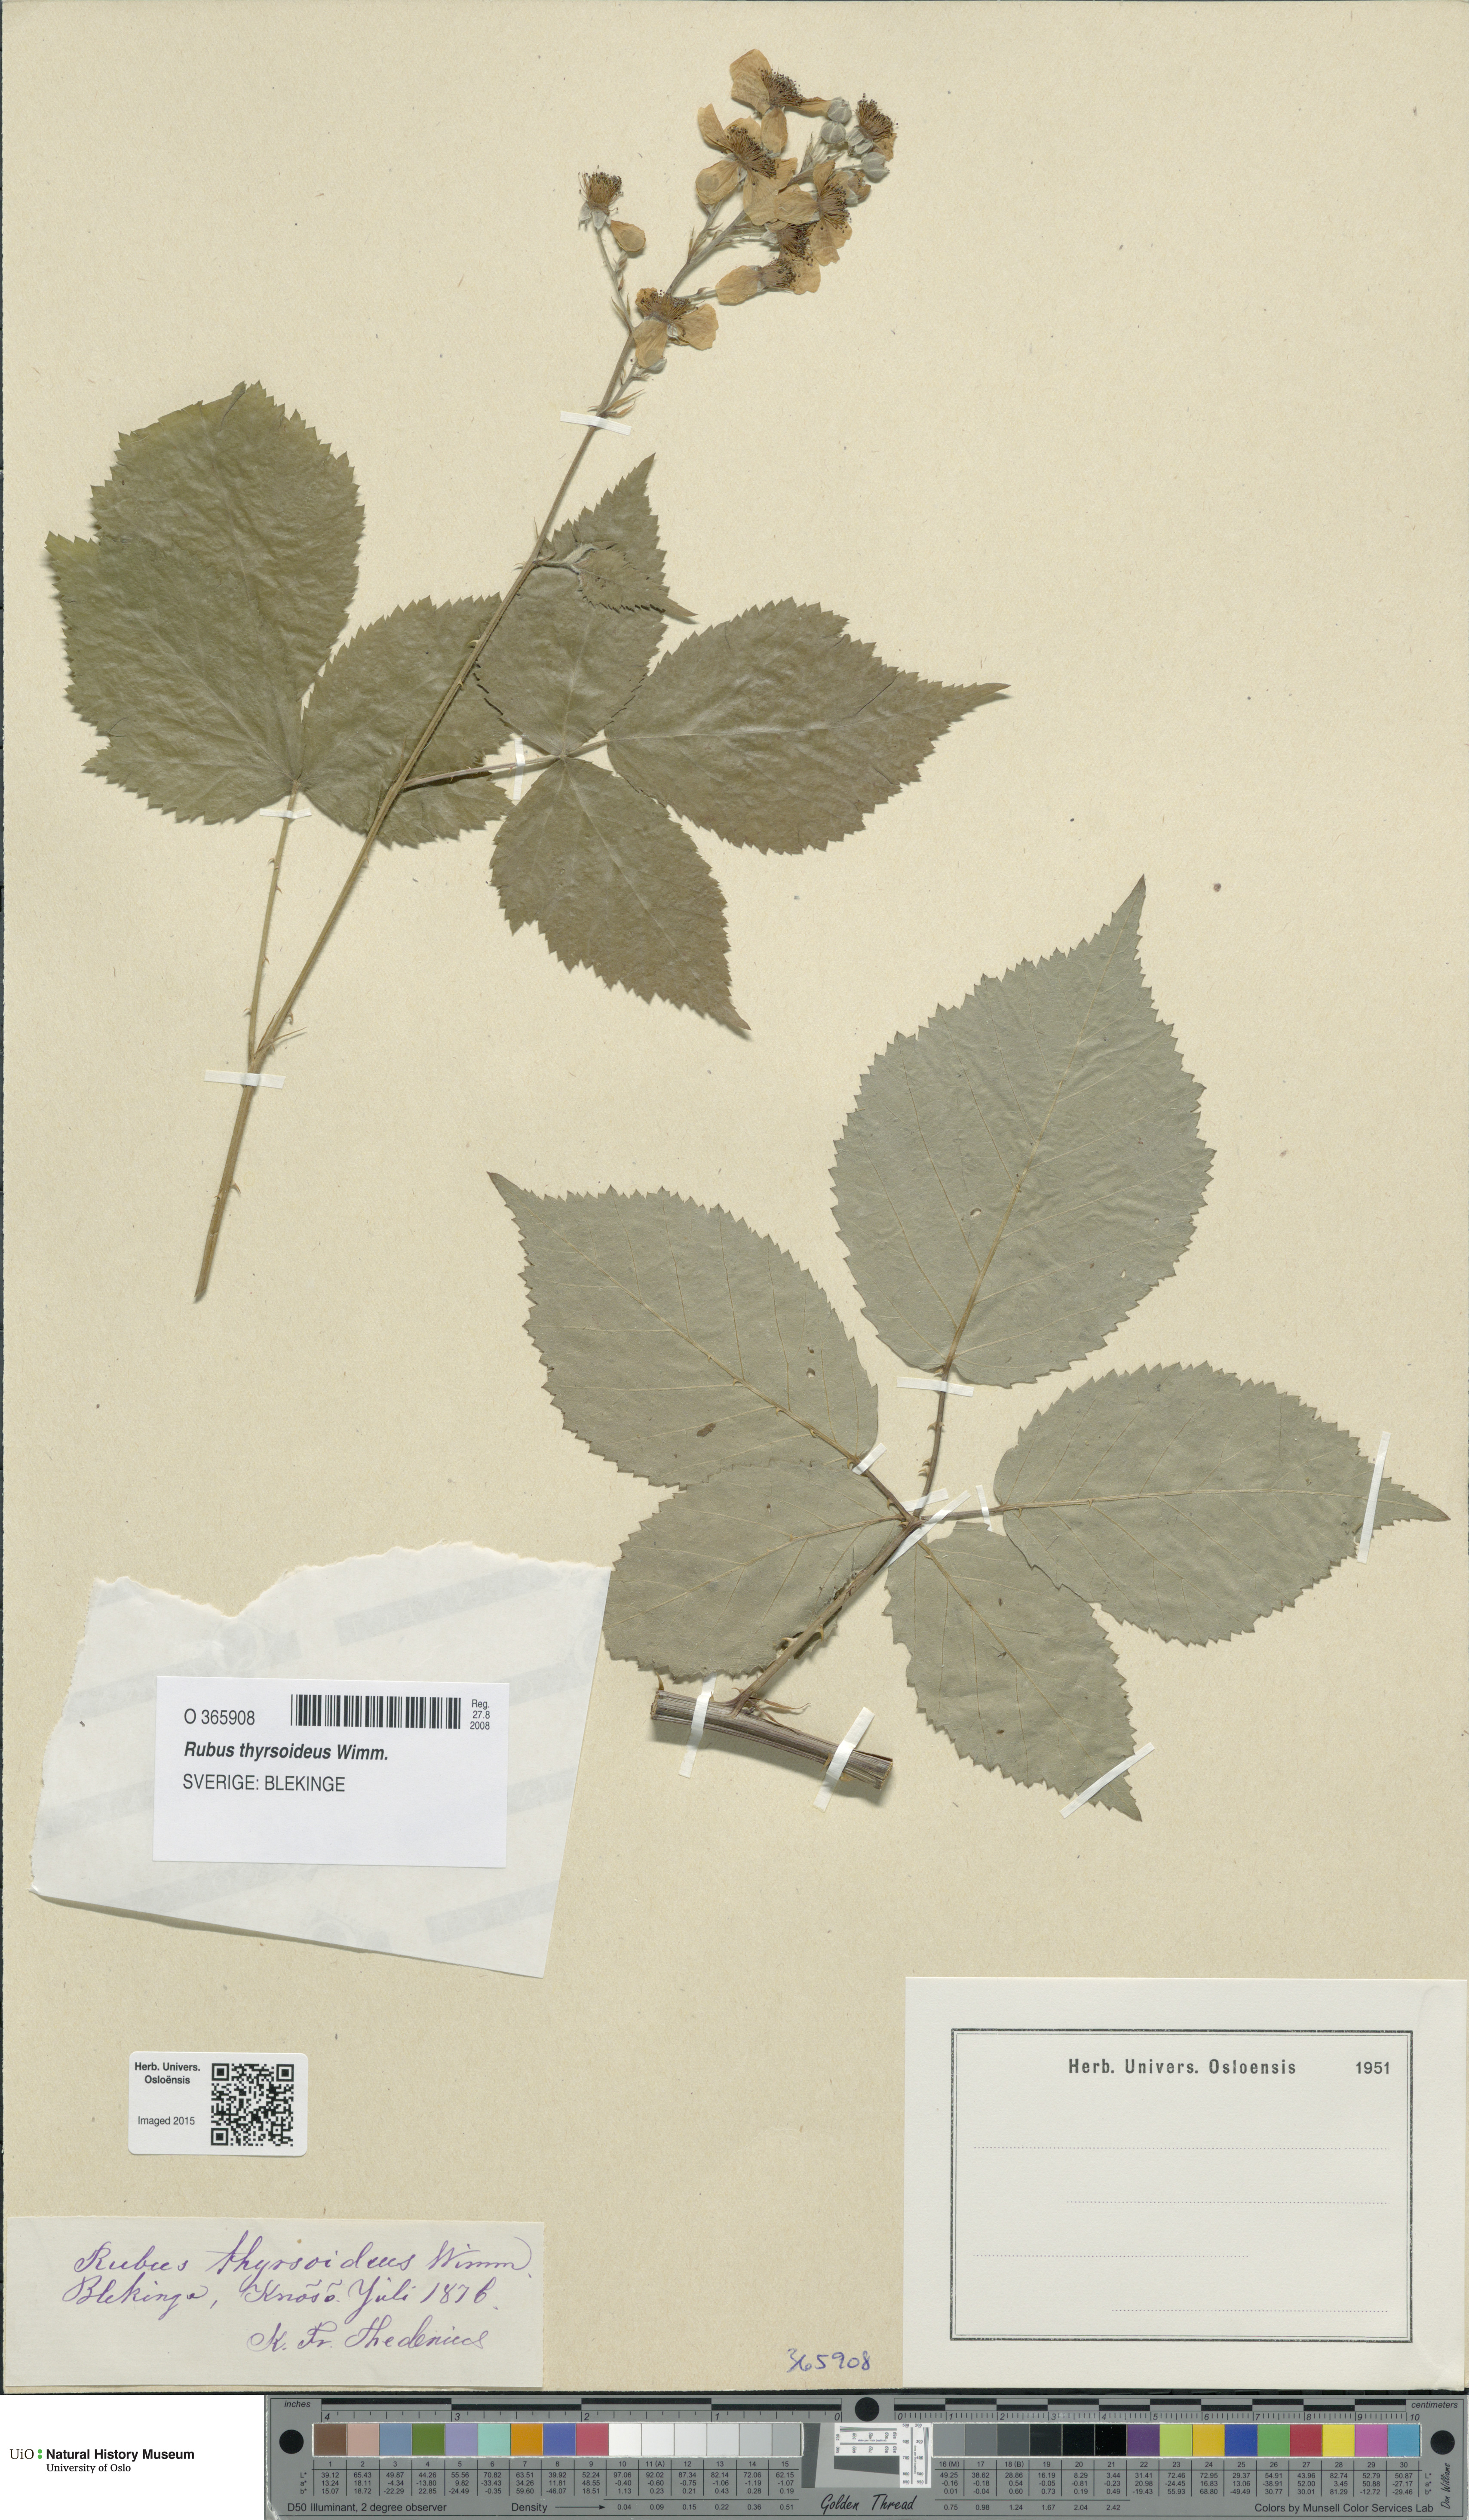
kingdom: Plantae
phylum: Tracheophyta
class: Magnoliopsida
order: Rosales
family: Rosaceae
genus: Rubus
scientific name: Rubus
